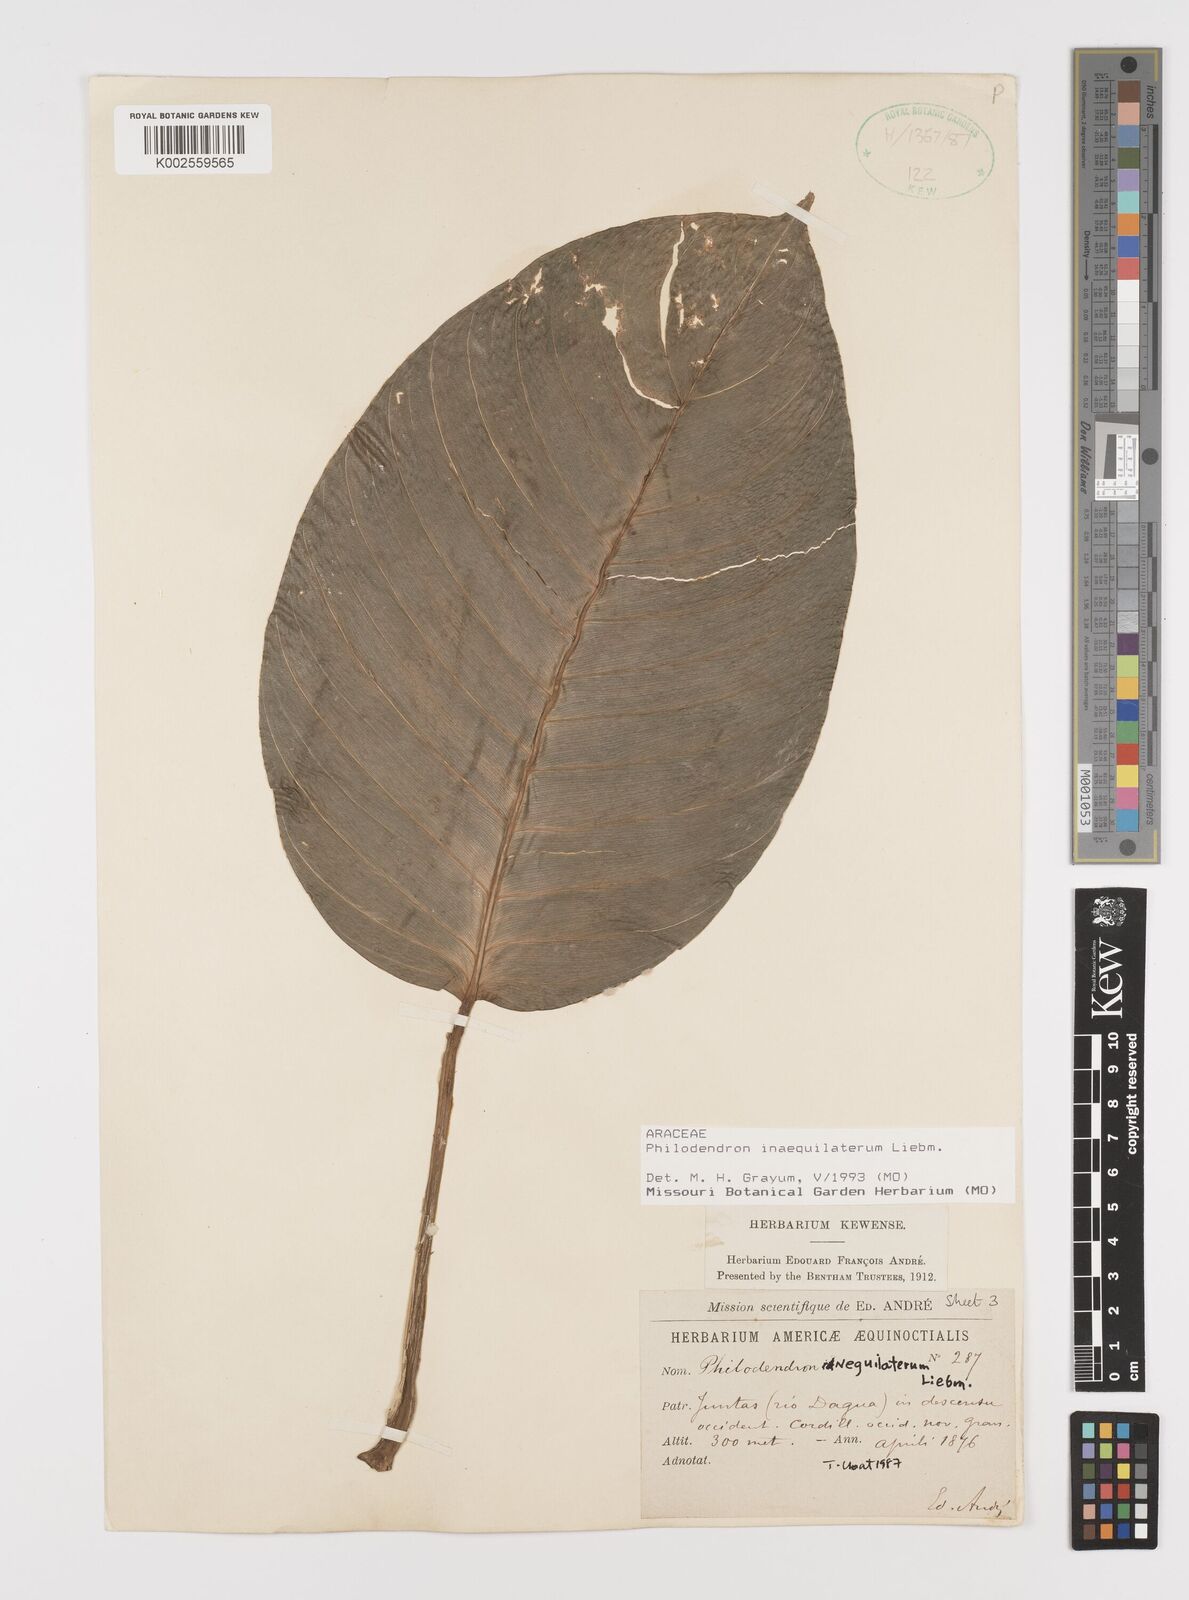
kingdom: Plantae
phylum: Tracheophyta
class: Liliopsida
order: Alismatales
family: Araceae
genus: Philodendron
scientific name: Philodendron inaequilaterum
